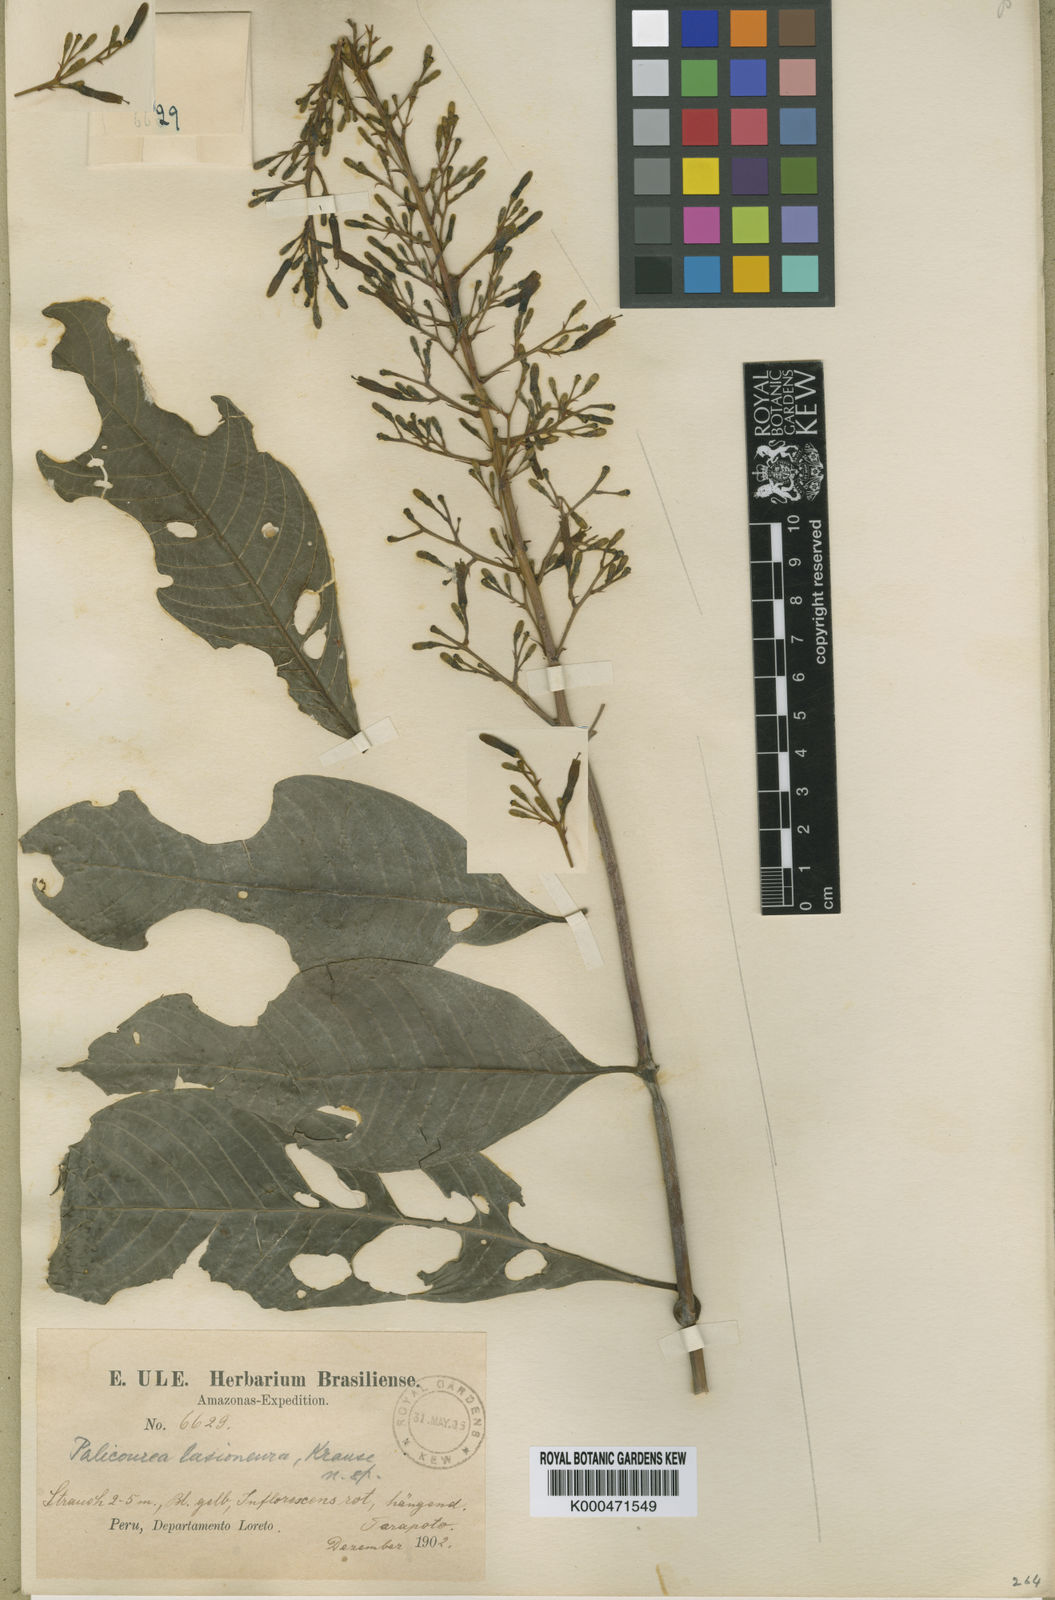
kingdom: Plantae
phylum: Tracheophyta
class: Magnoliopsida
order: Gentianales
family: Rubiaceae
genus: Palicourea
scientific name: Palicourea macrobotrys
